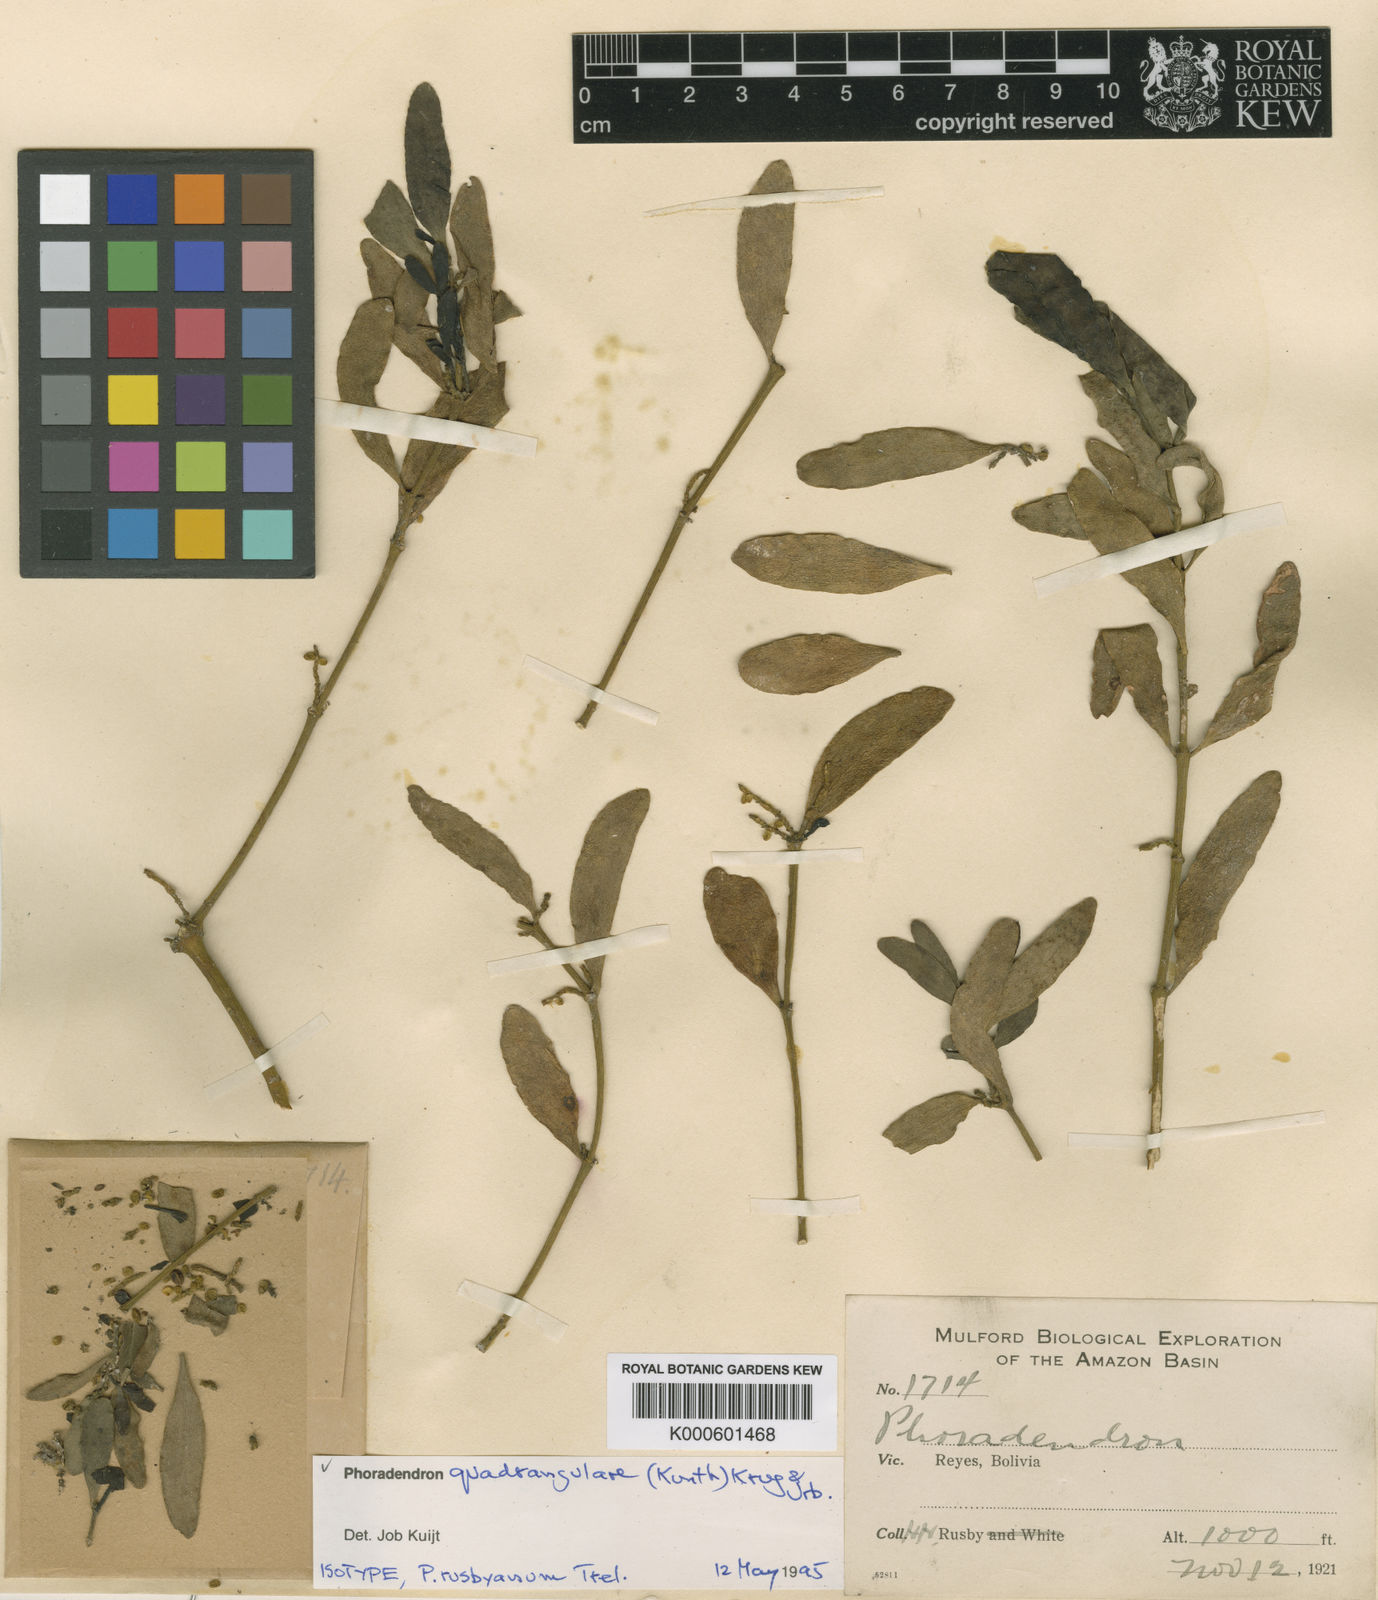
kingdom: Plantae
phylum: Tracheophyta
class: Magnoliopsida
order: Santalales
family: Viscaceae
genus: Phoradendron
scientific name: Phoradendron
